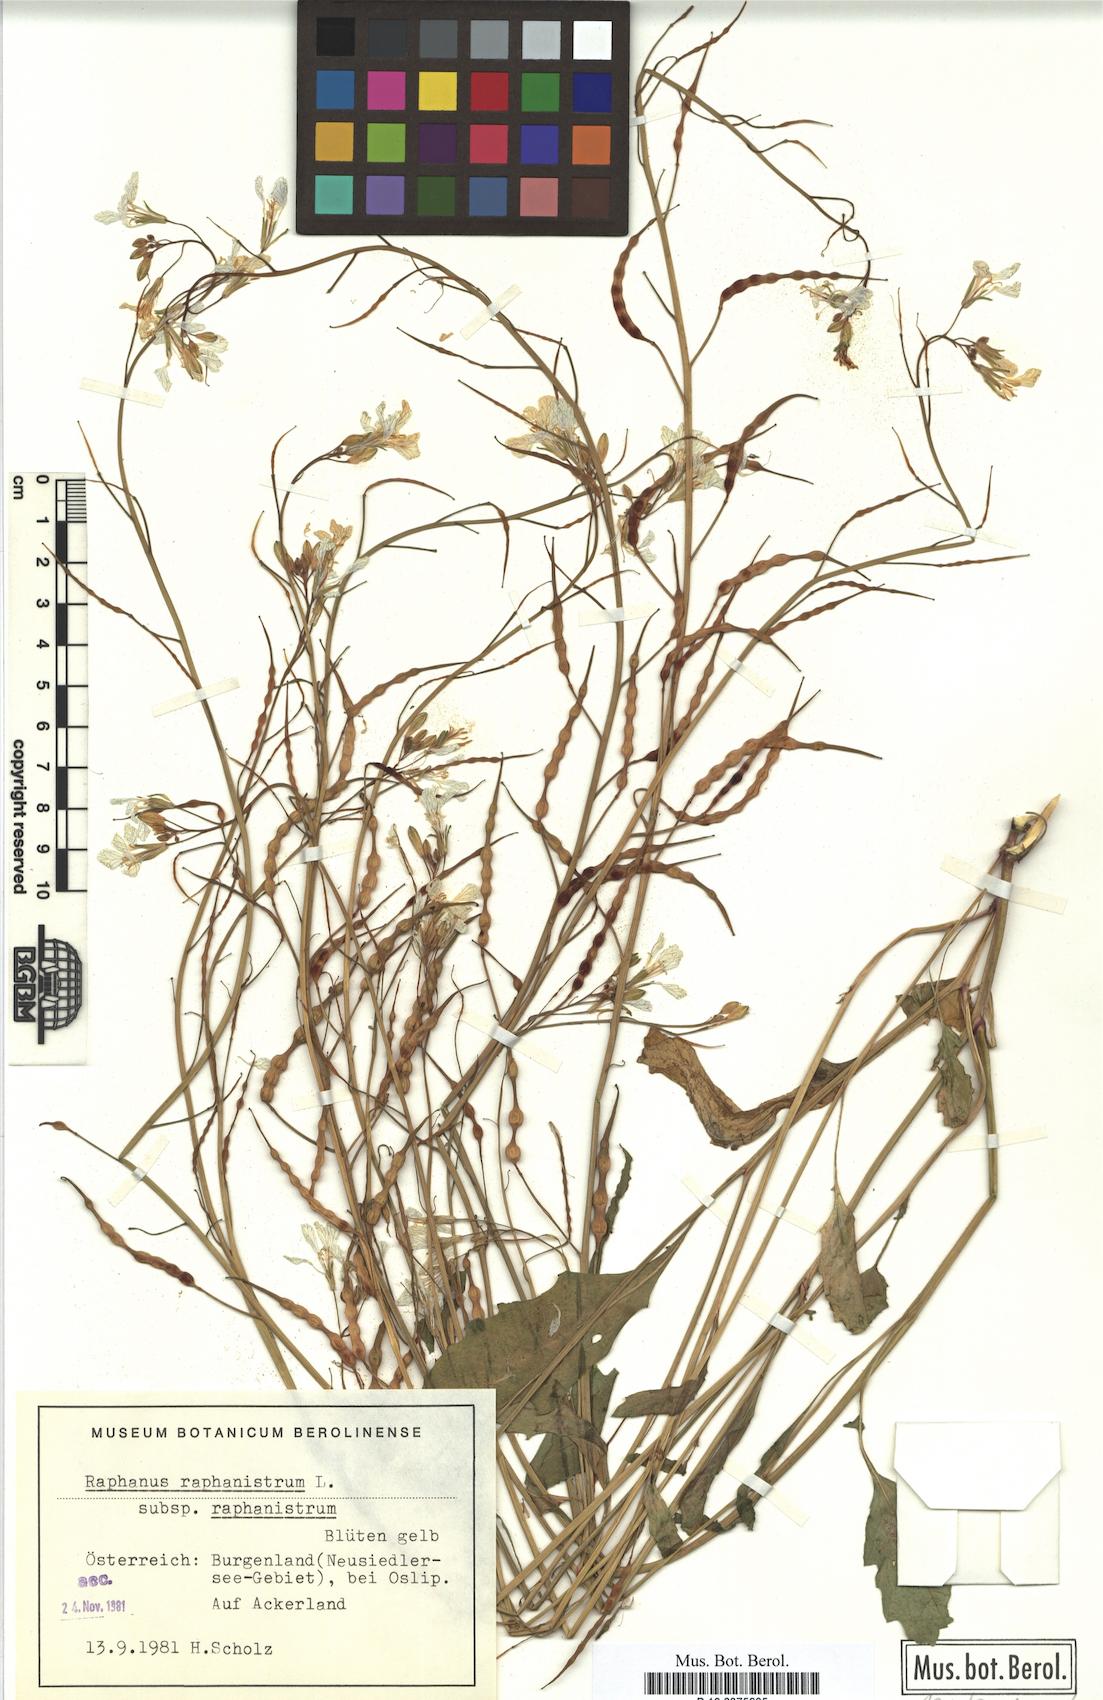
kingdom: Plantae
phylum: Tracheophyta
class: Magnoliopsida
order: Brassicales
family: Brassicaceae
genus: Raphanus
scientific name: Raphanus raphanistrum
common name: Wild radish
